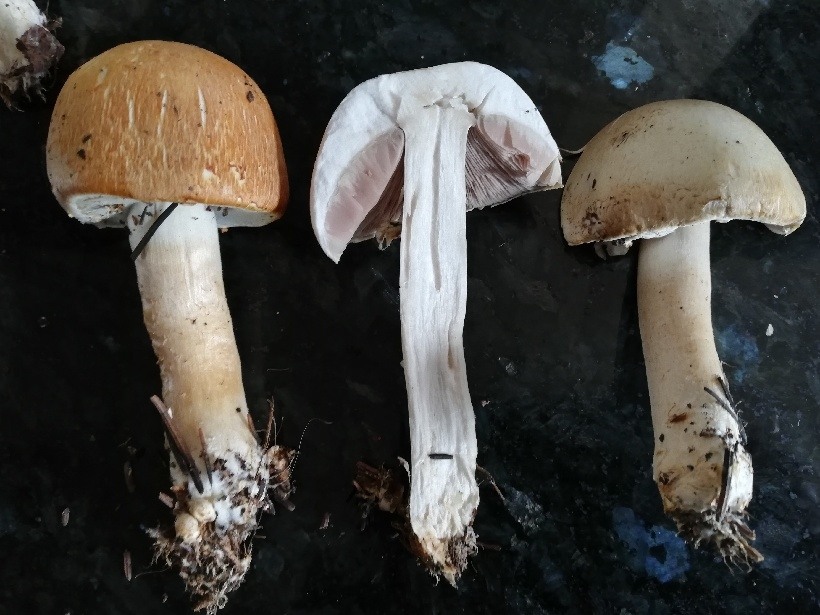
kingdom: Fungi
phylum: Basidiomycota
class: Agaricomycetes
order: Agaricales
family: Agaricaceae
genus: Agaricus
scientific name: Agaricus arvensis
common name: Horse mushroom
